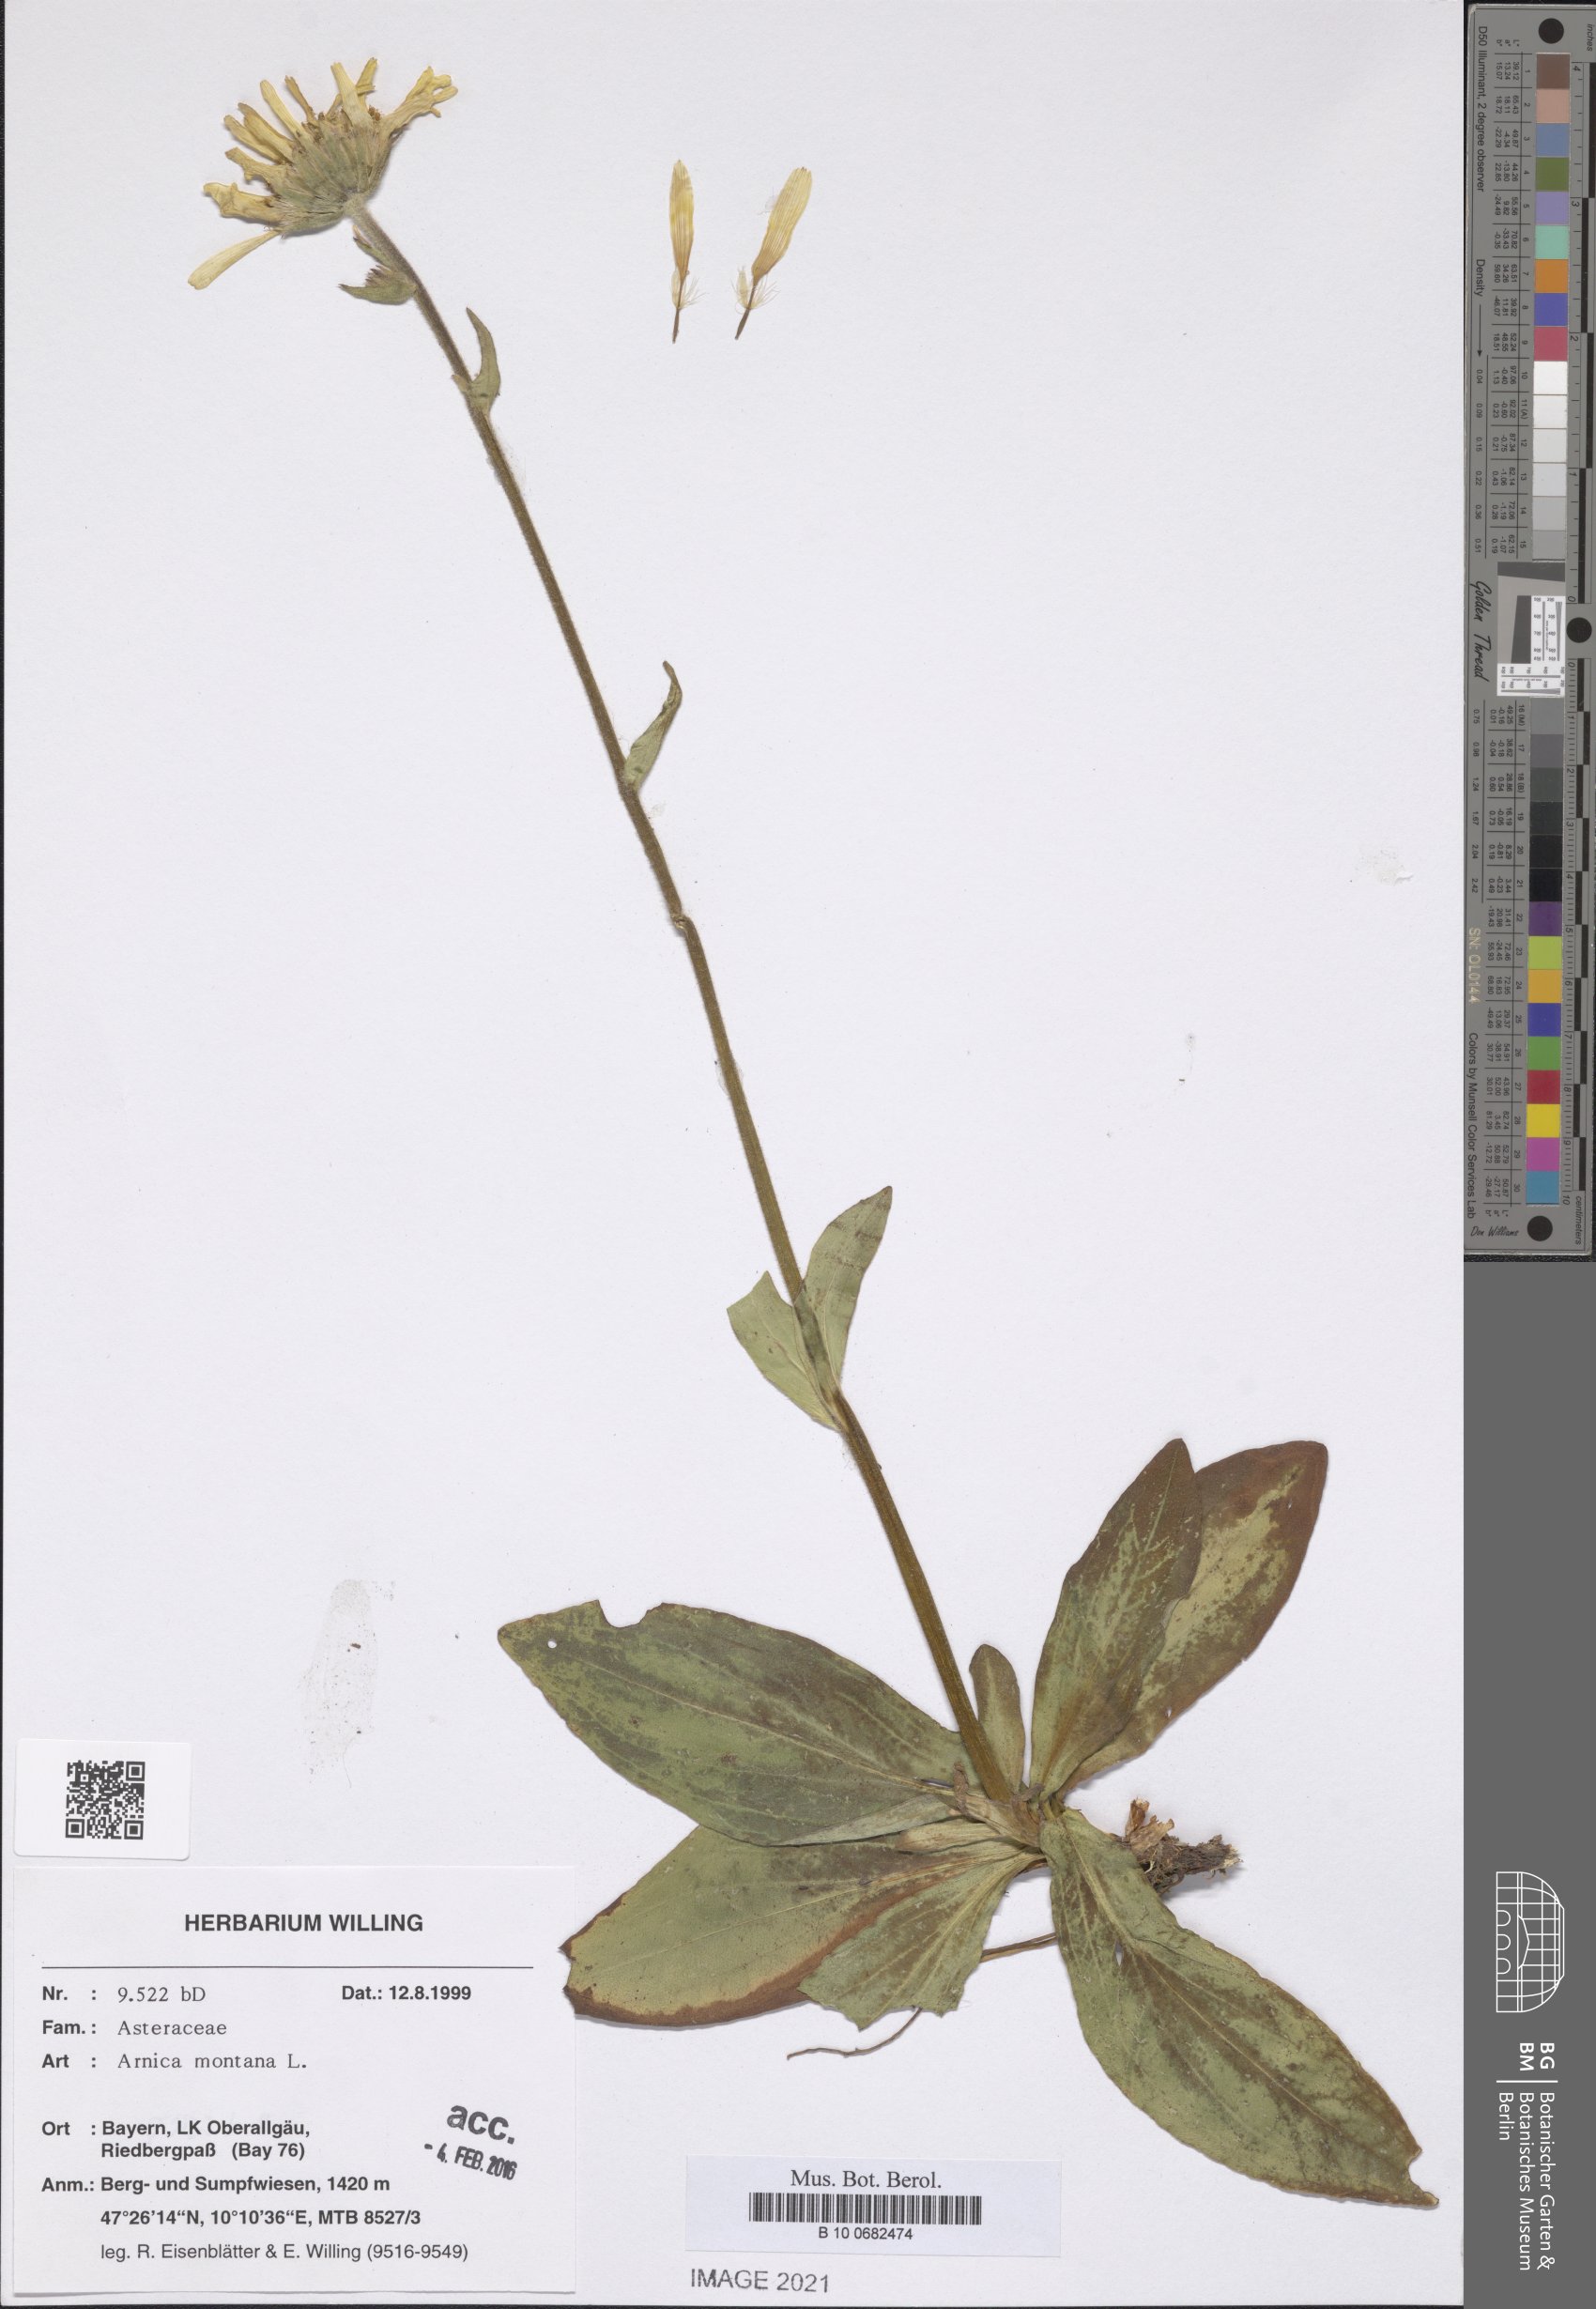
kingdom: Plantae
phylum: Tracheophyta
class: Magnoliopsida
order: Asterales
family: Asteraceae
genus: Arnica
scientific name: Arnica montana
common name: Leopard's bane
